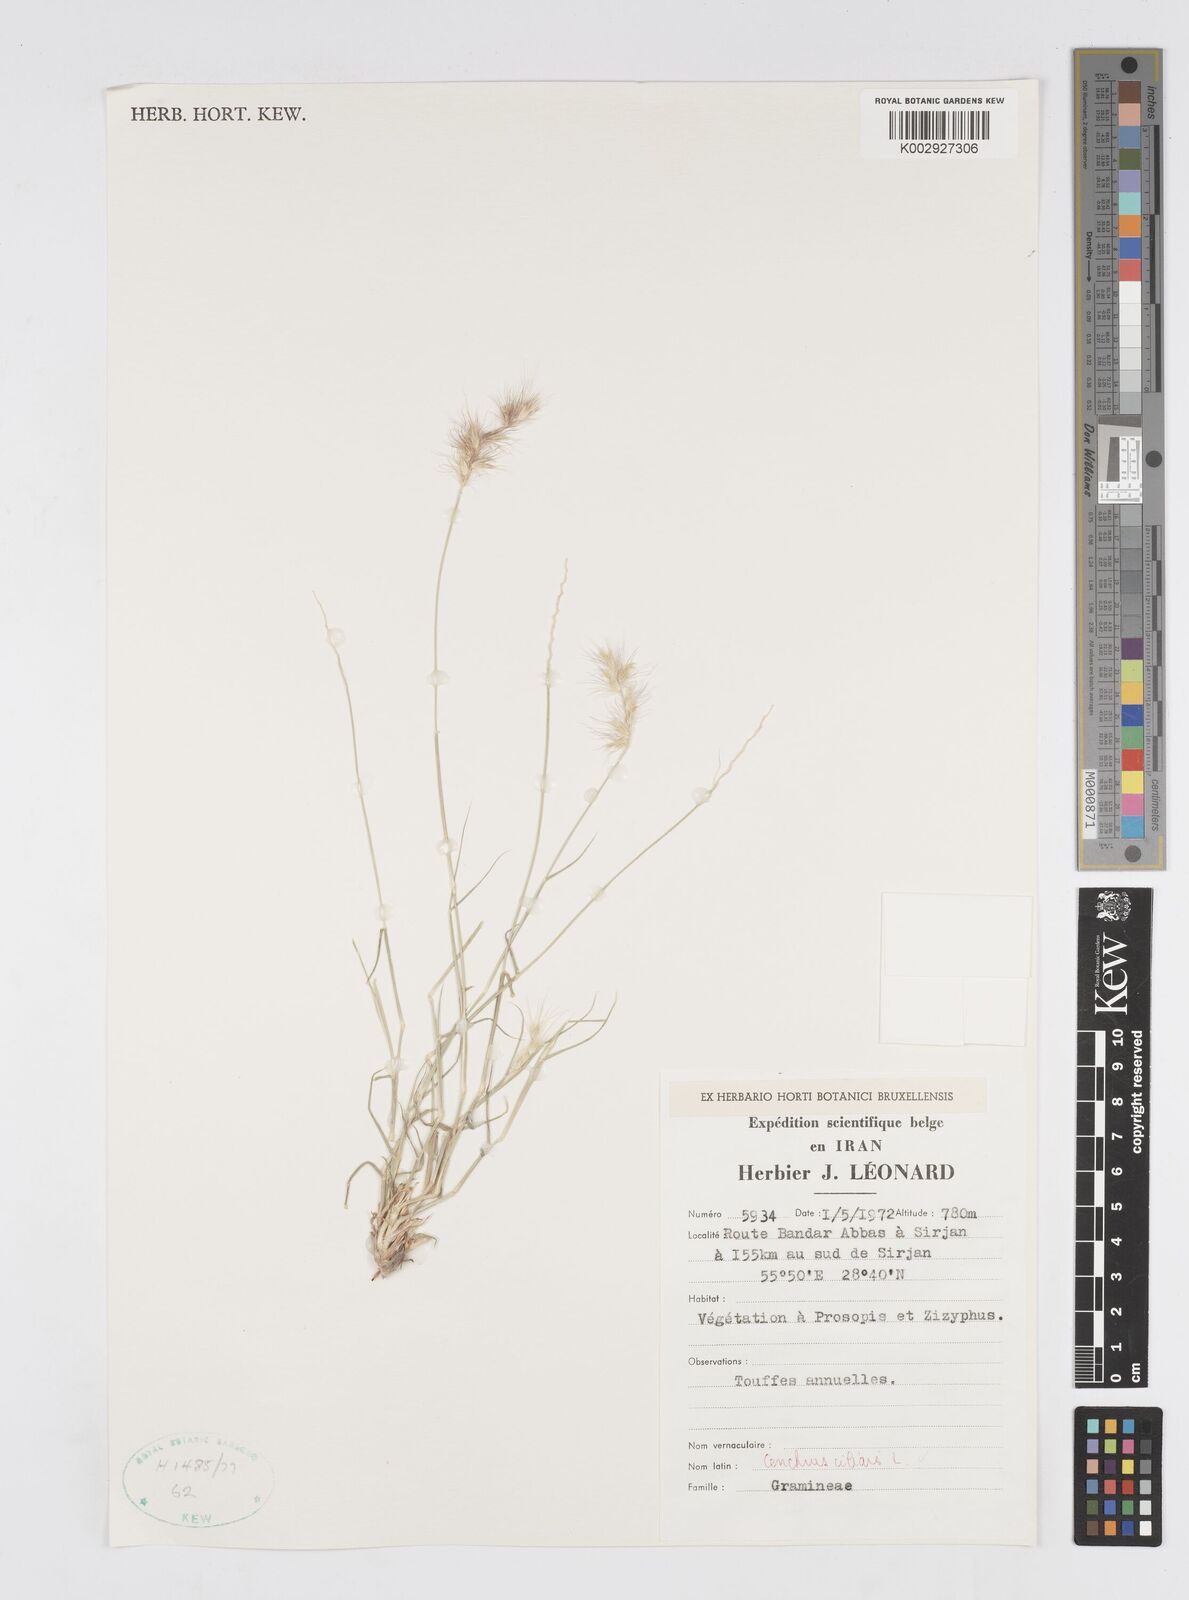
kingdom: Plantae
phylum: Tracheophyta
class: Liliopsida
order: Poales
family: Poaceae
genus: Cenchrus
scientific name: Cenchrus ciliaris
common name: Buffelgrass
